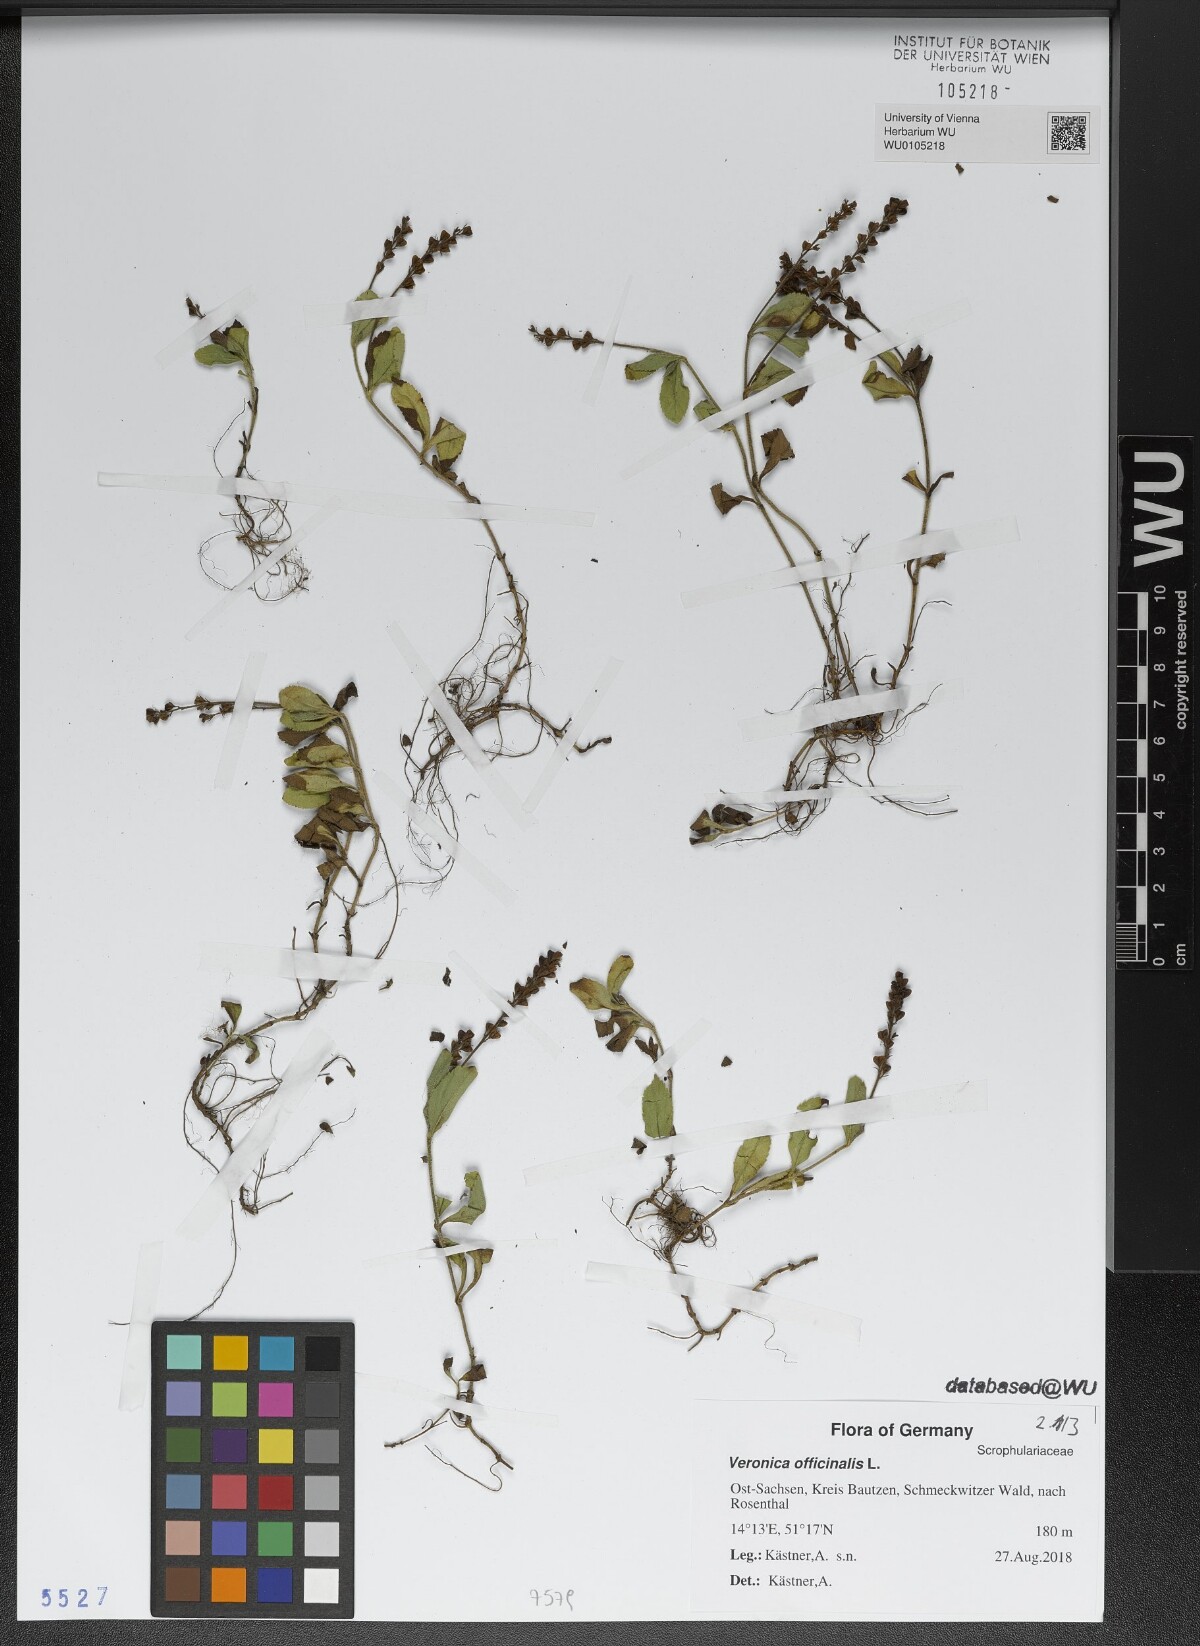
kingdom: Plantae
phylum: Tracheophyta
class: Magnoliopsida
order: Lamiales
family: Plantaginaceae
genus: Veronica
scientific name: Veronica officinalis
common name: Common speedwell
